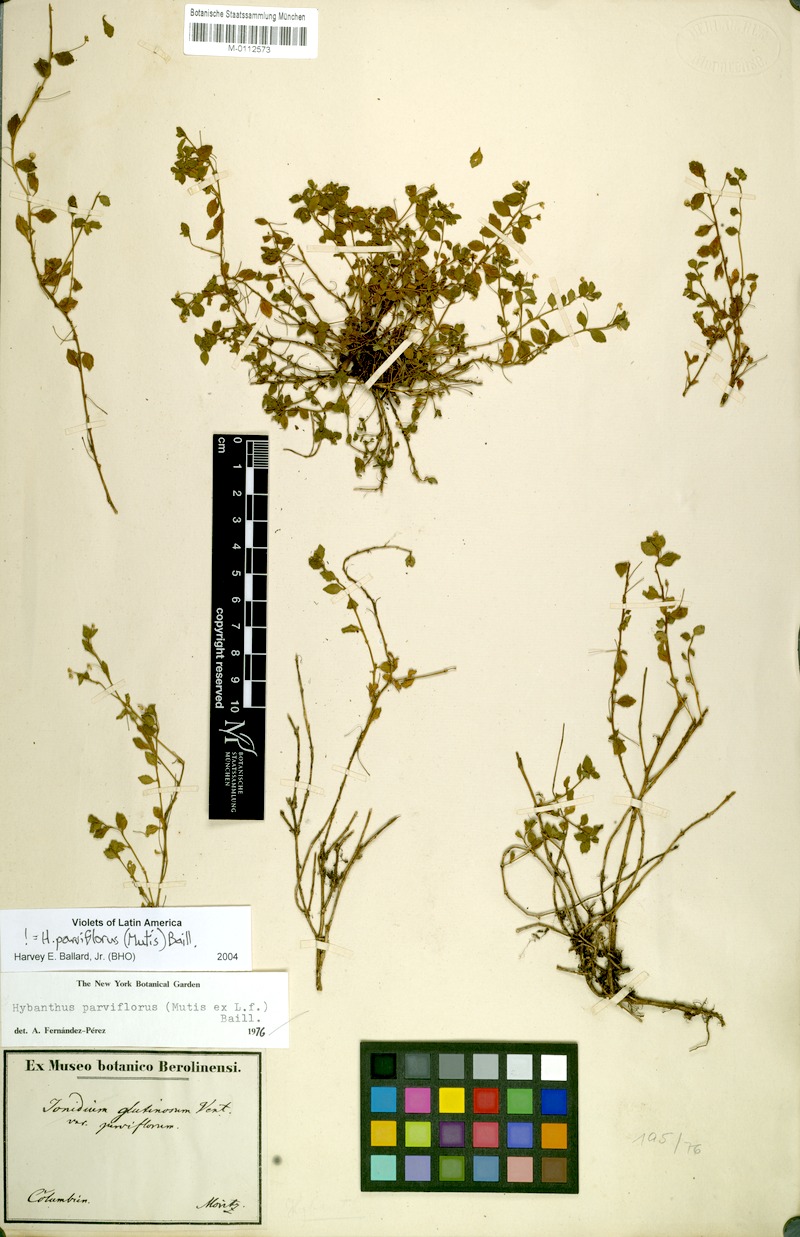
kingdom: Plantae
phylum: Tracheophyta
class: Magnoliopsida
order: Malpighiales
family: Violaceae
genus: Pombalia
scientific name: Pombalia parviflora
